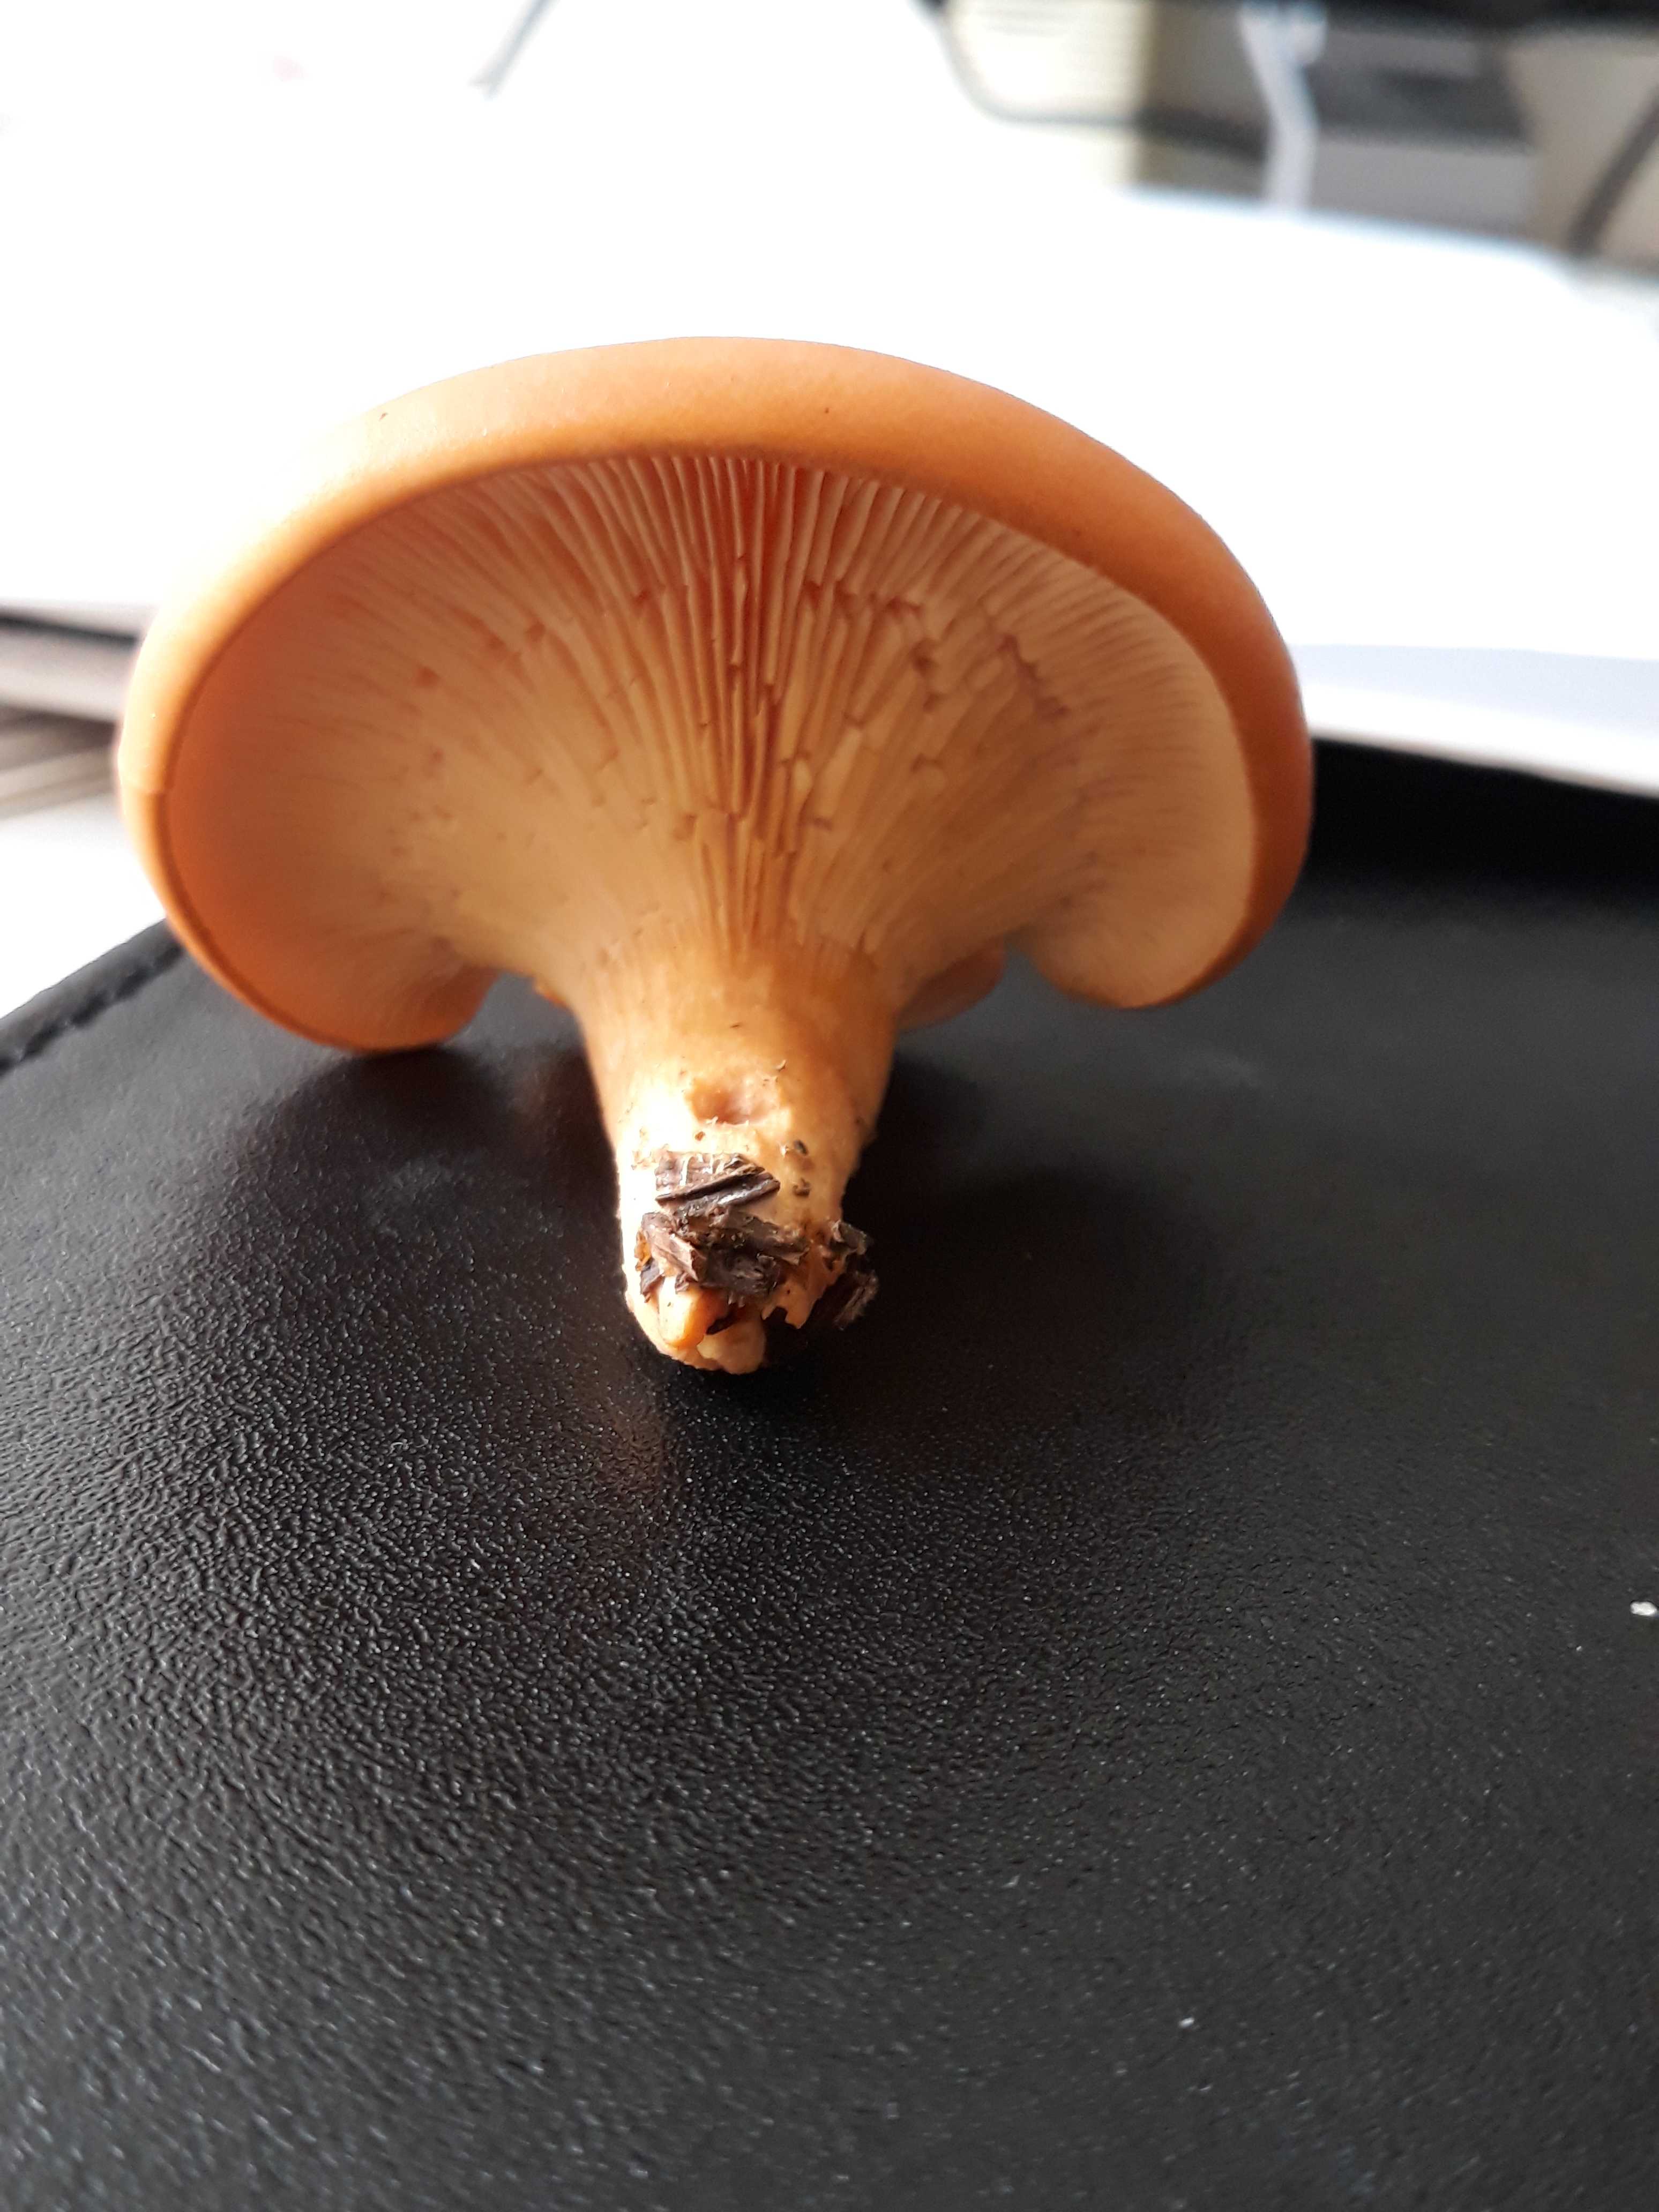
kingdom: Fungi
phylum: Basidiomycota
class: Agaricomycetes
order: Agaricales
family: Tricholomataceae
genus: Paralepista
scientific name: Paralepista flaccida
